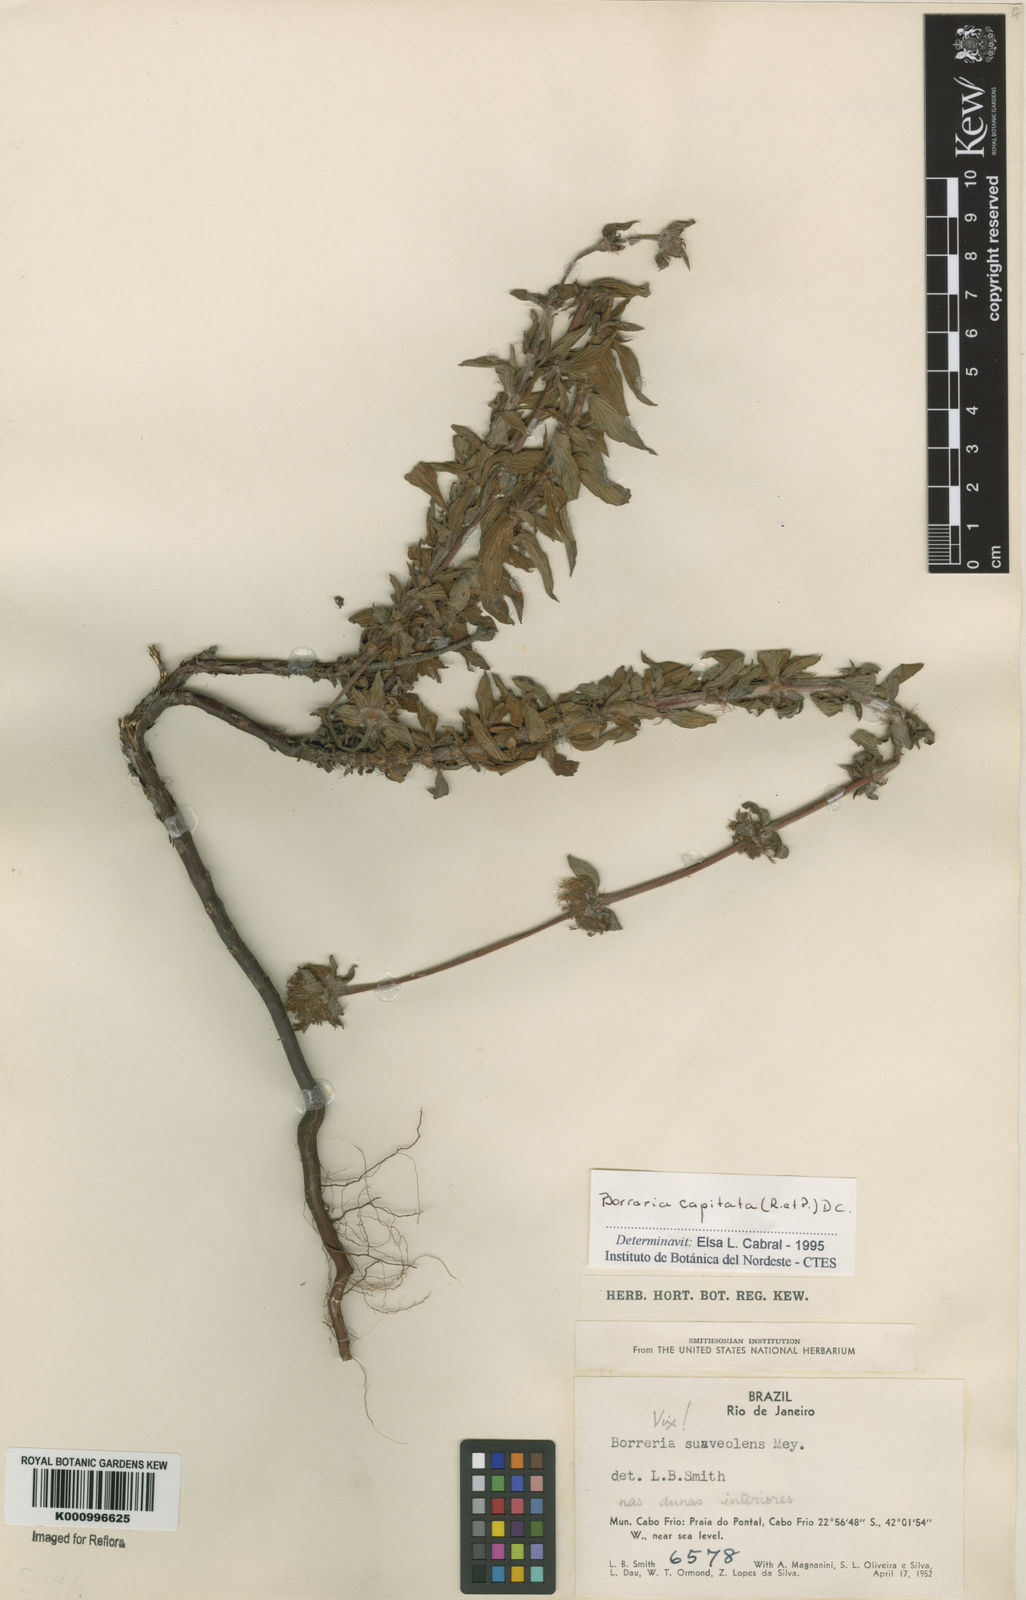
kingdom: Plantae
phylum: Tracheophyta
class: Magnoliopsida
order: Gentianales
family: Rubiaceae
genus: Spermacoce
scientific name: Spermacoce capitata
